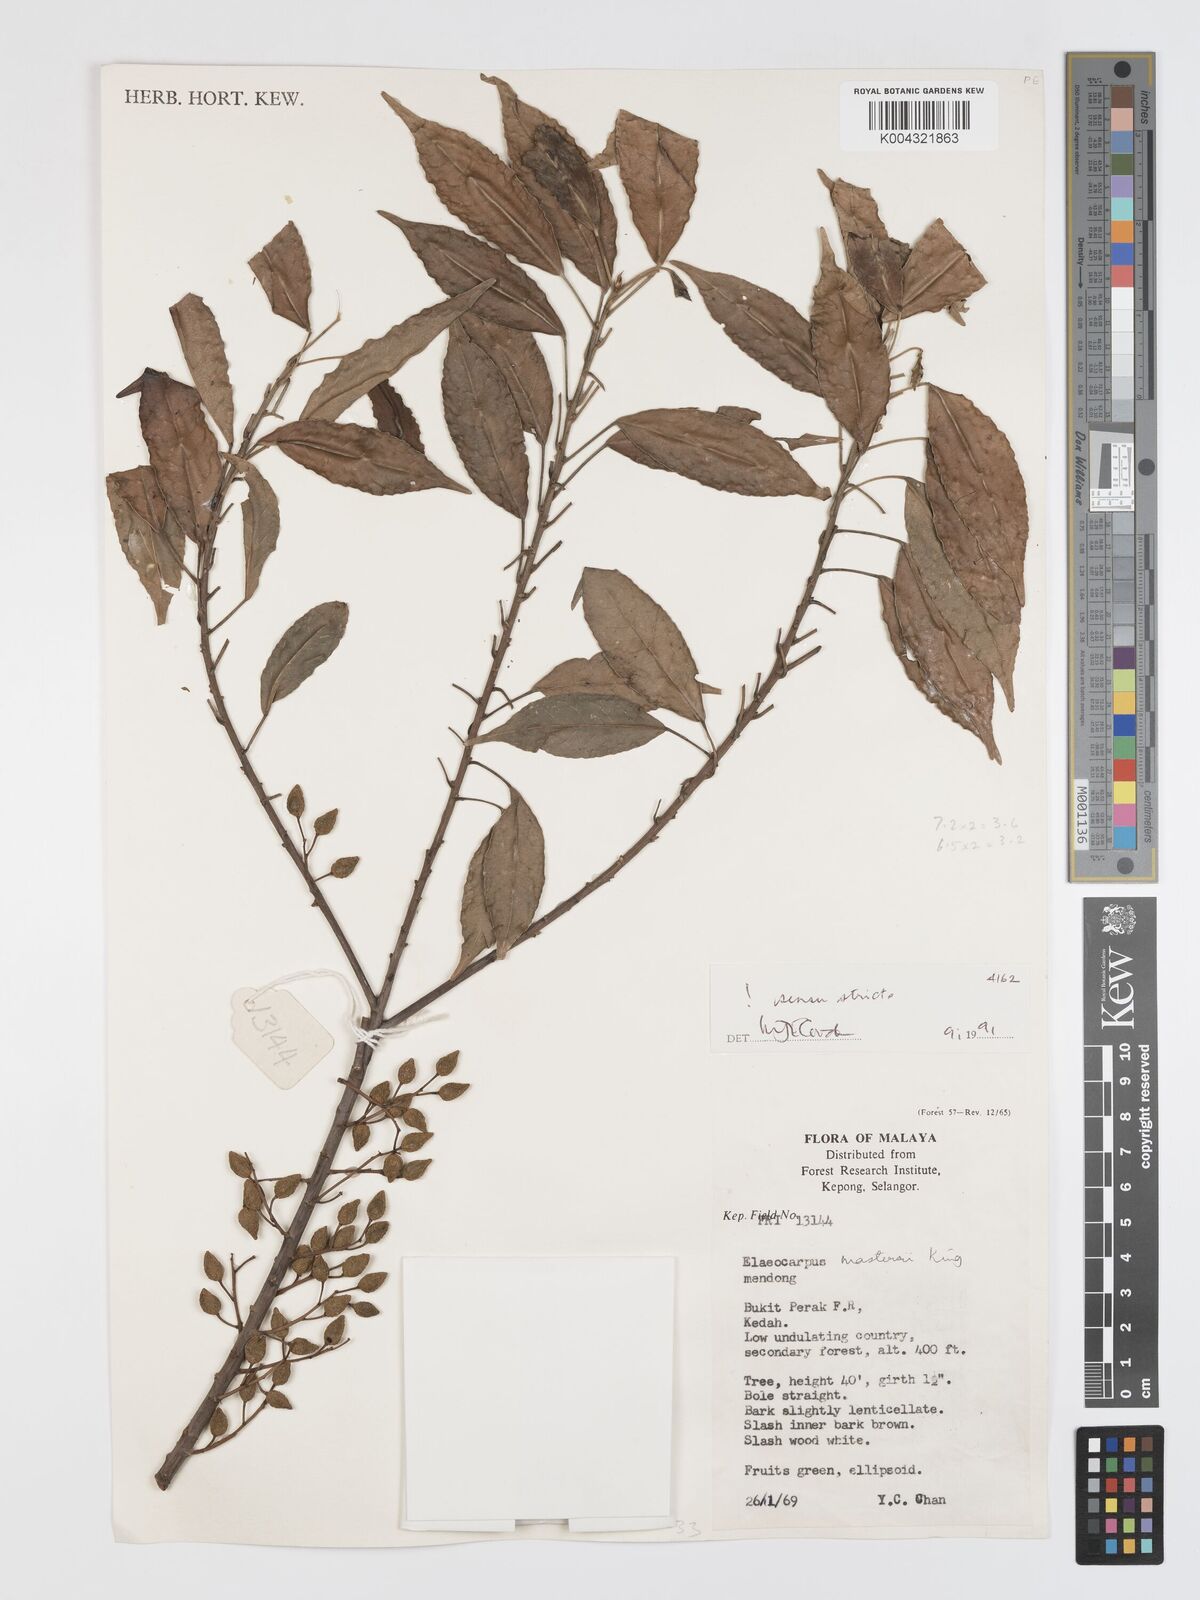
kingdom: Plantae
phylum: Tracheophyta
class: Magnoliopsida
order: Oxalidales
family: Elaeocarpaceae
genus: Elaeocarpus
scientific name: Elaeocarpus mastersii
